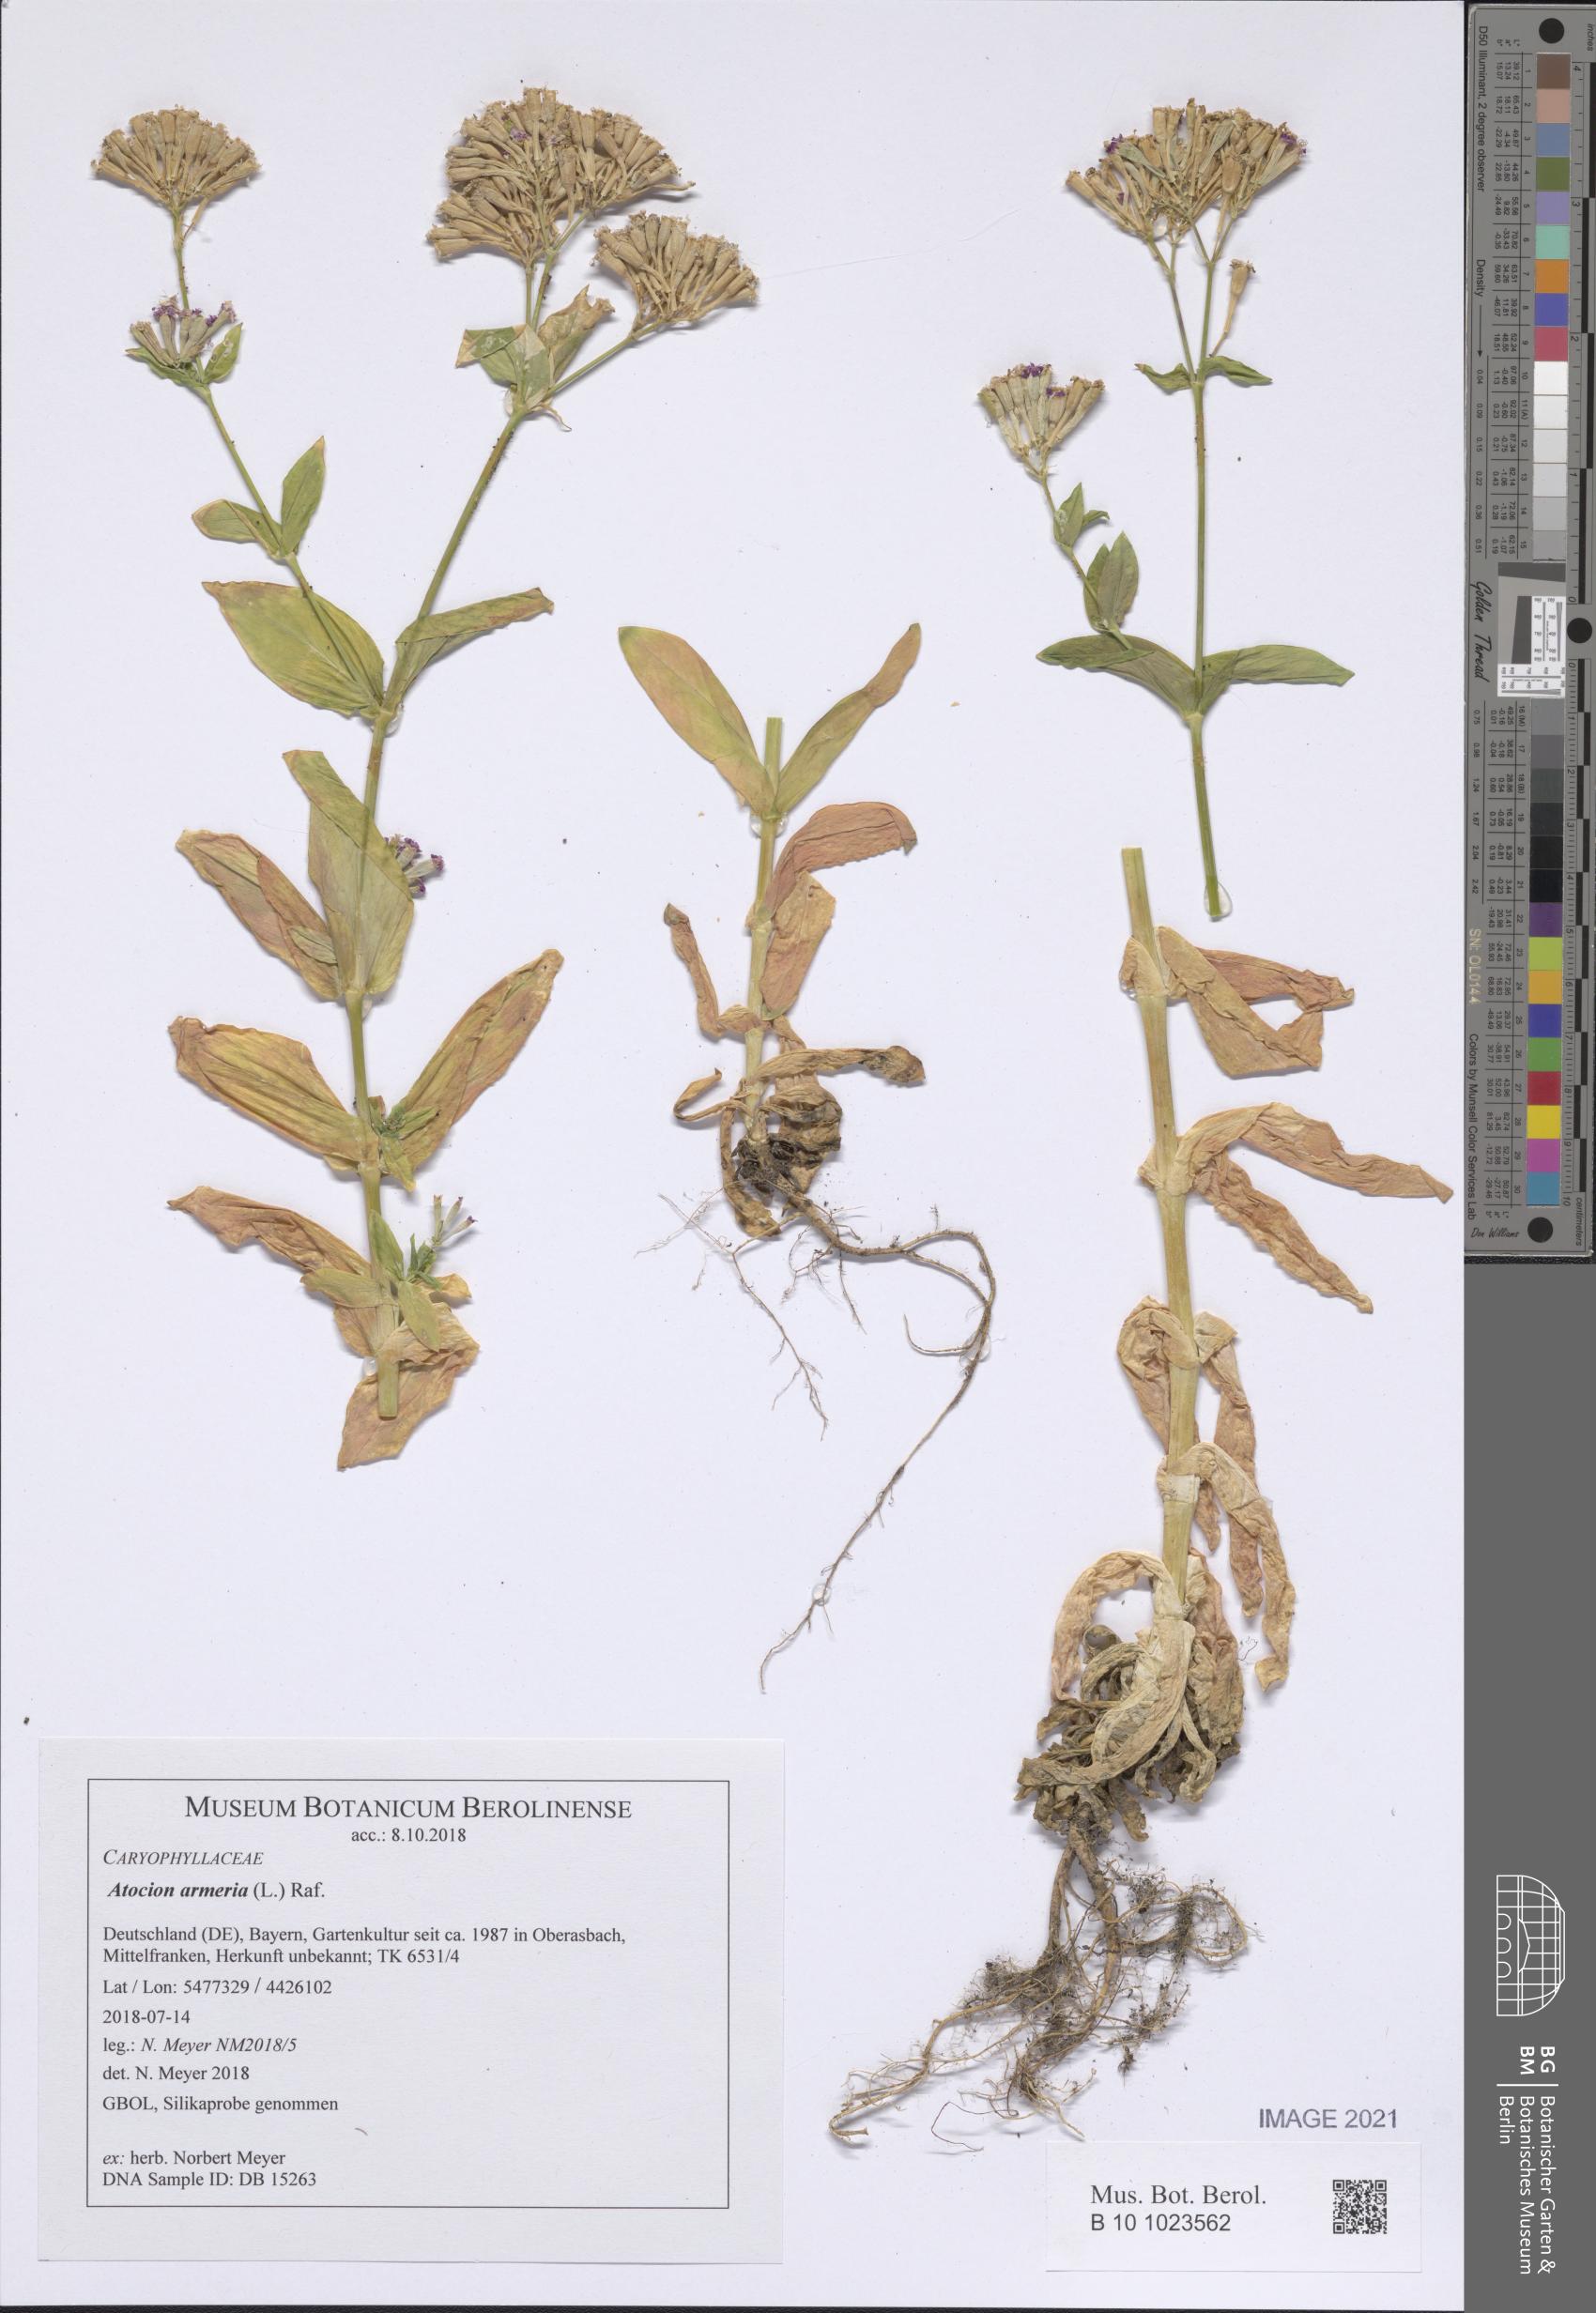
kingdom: Plantae
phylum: Tracheophyta
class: Magnoliopsida
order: Caryophyllales
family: Caryophyllaceae
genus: Atocion
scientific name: Atocion armeria
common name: Sweet william catchfly
